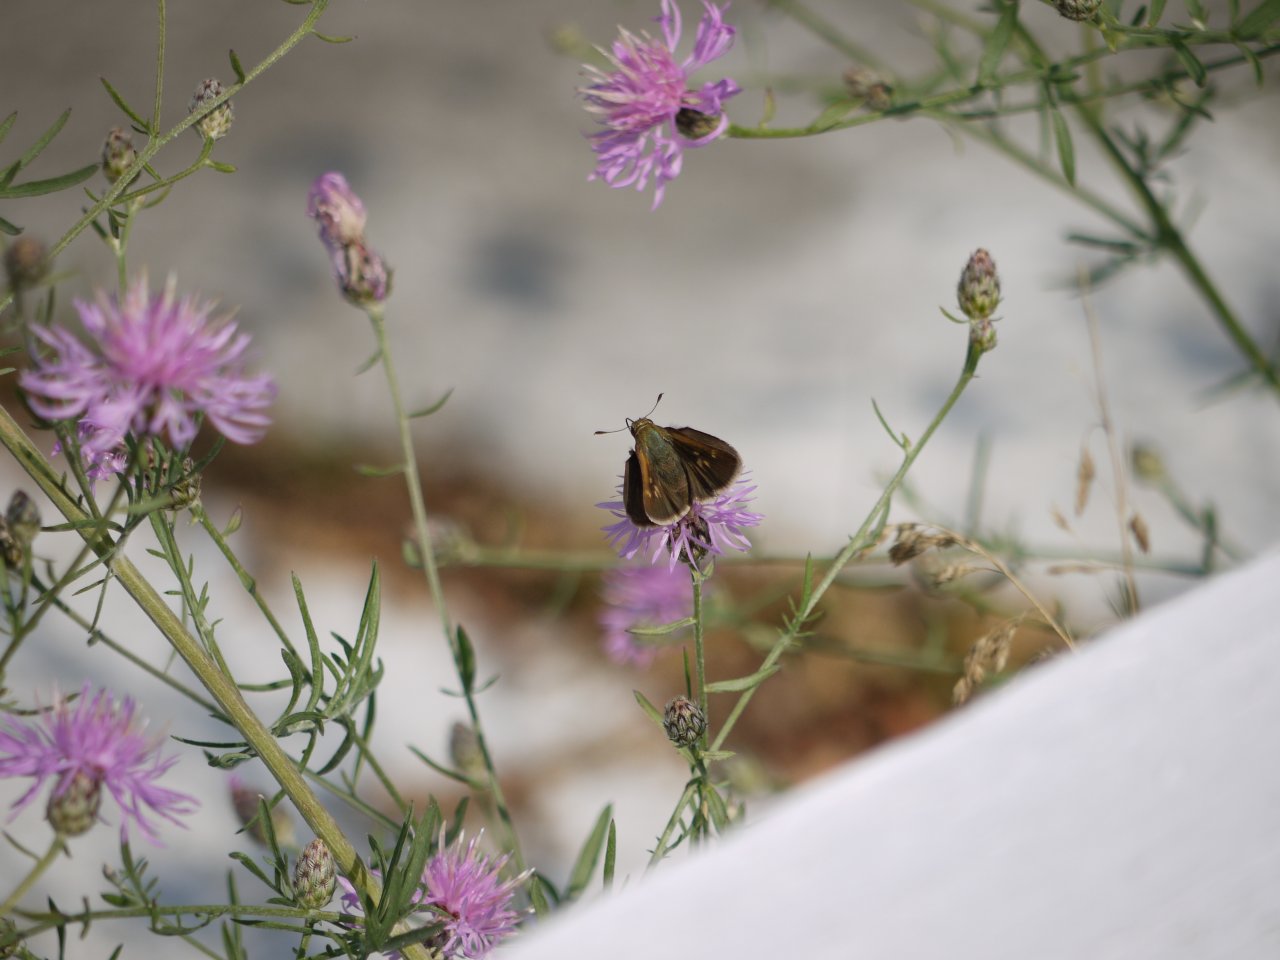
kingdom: Animalia
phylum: Arthropoda
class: Insecta
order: Lepidoptera
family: Hesperiidae
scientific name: Hesperiidae
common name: Skippers
